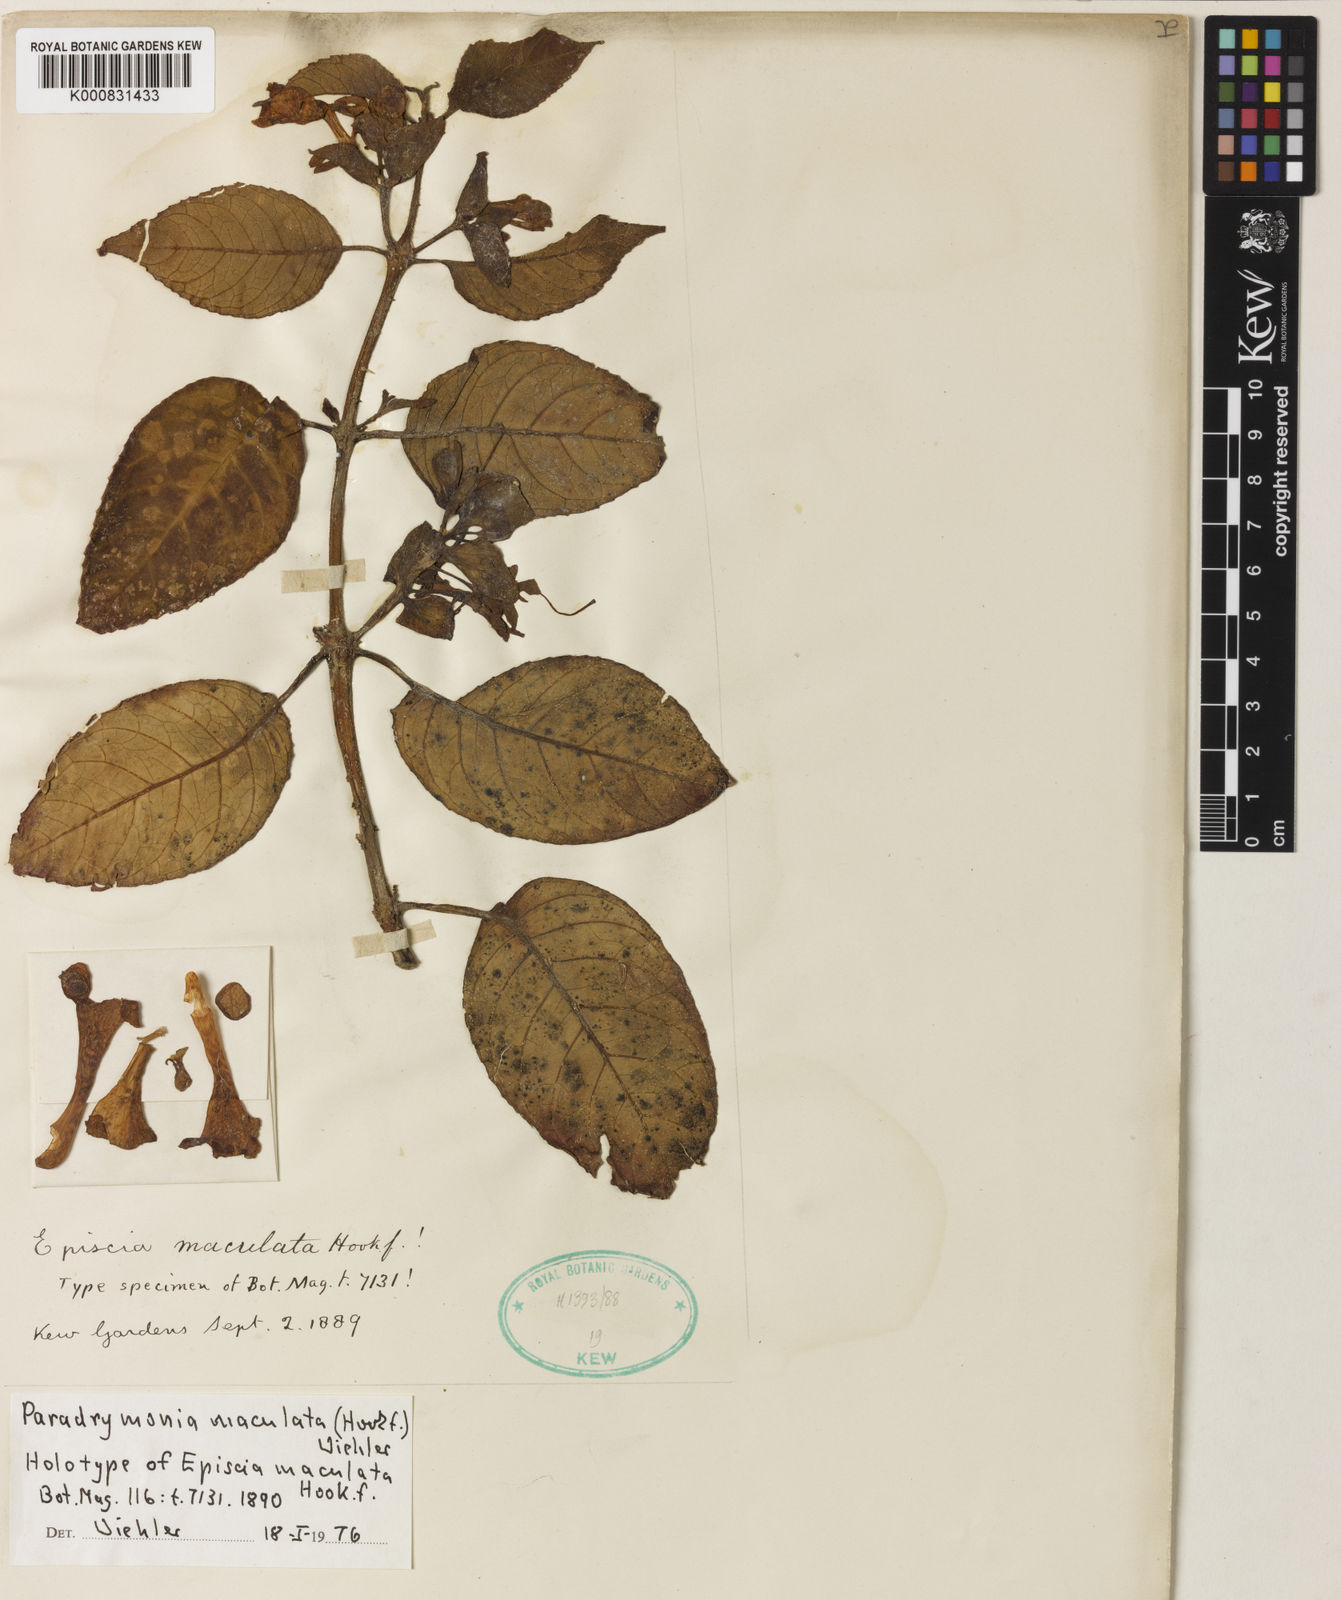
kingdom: Plantae
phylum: Tracheophyta
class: Magnoliopsida
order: Lamiales
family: Gesneriaceae
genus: Pagothyra
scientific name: Pagothyra maculata
